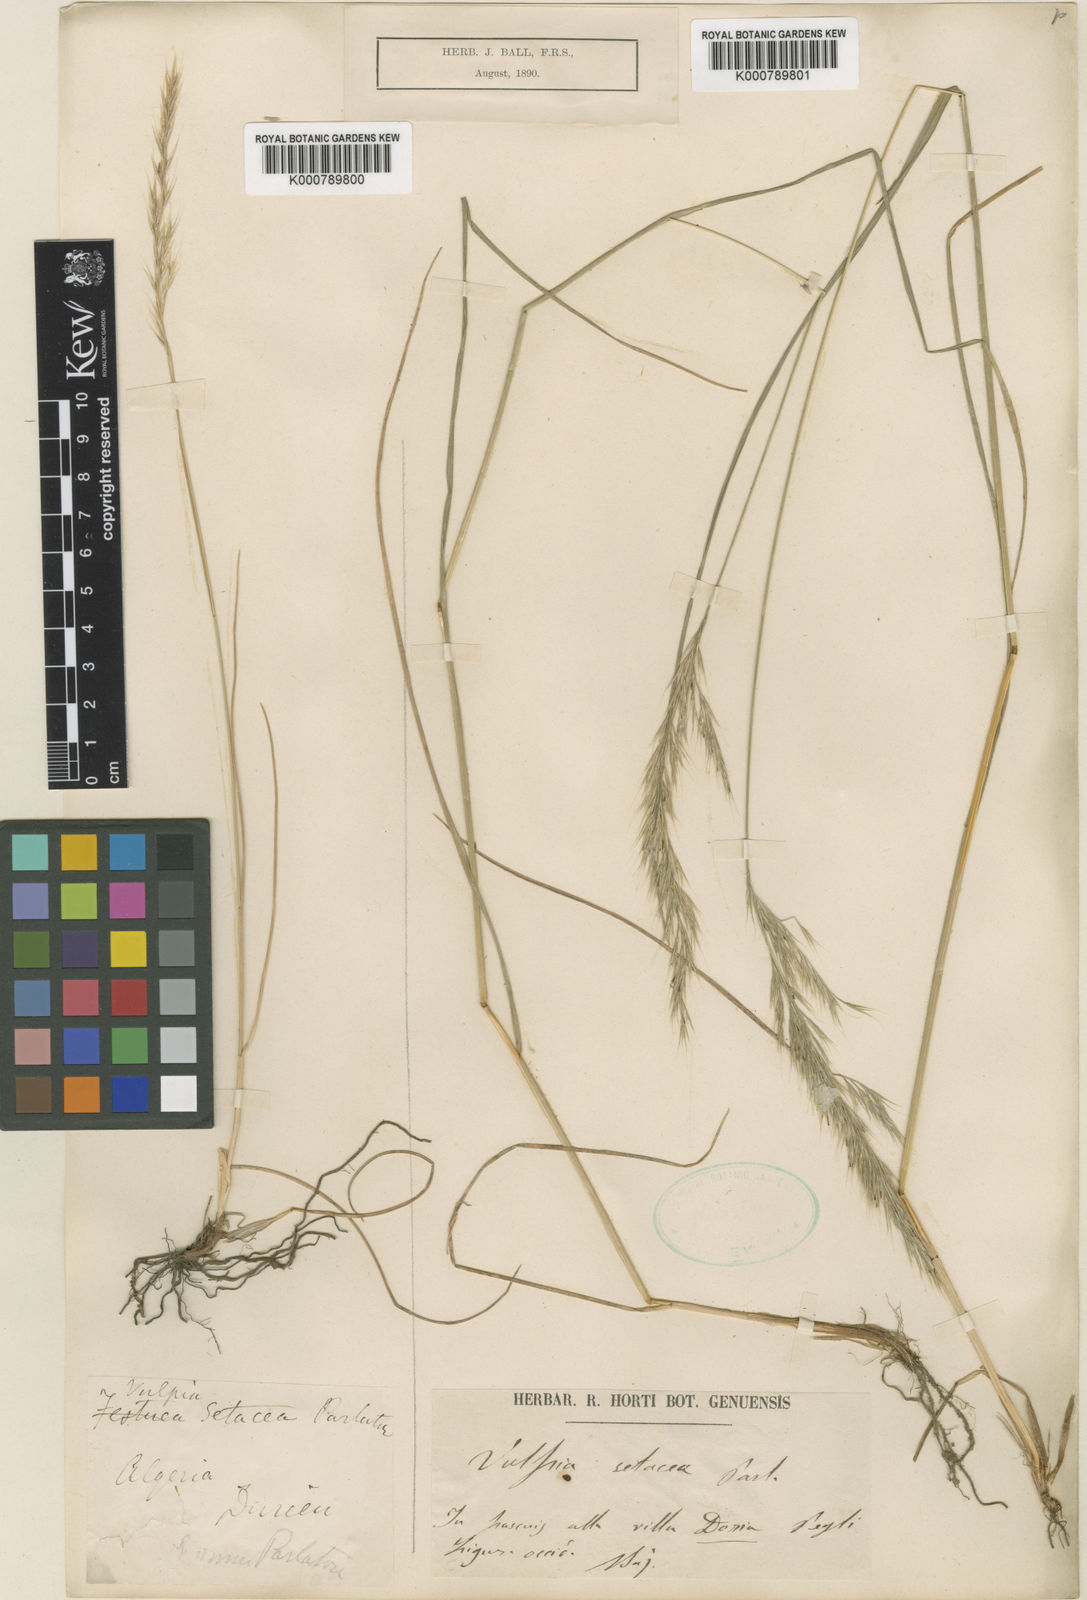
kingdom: Plantae
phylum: Tracheophyta
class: Liliopsida
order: Poales
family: Poaceae
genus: Festuca
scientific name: Festuca sicula
